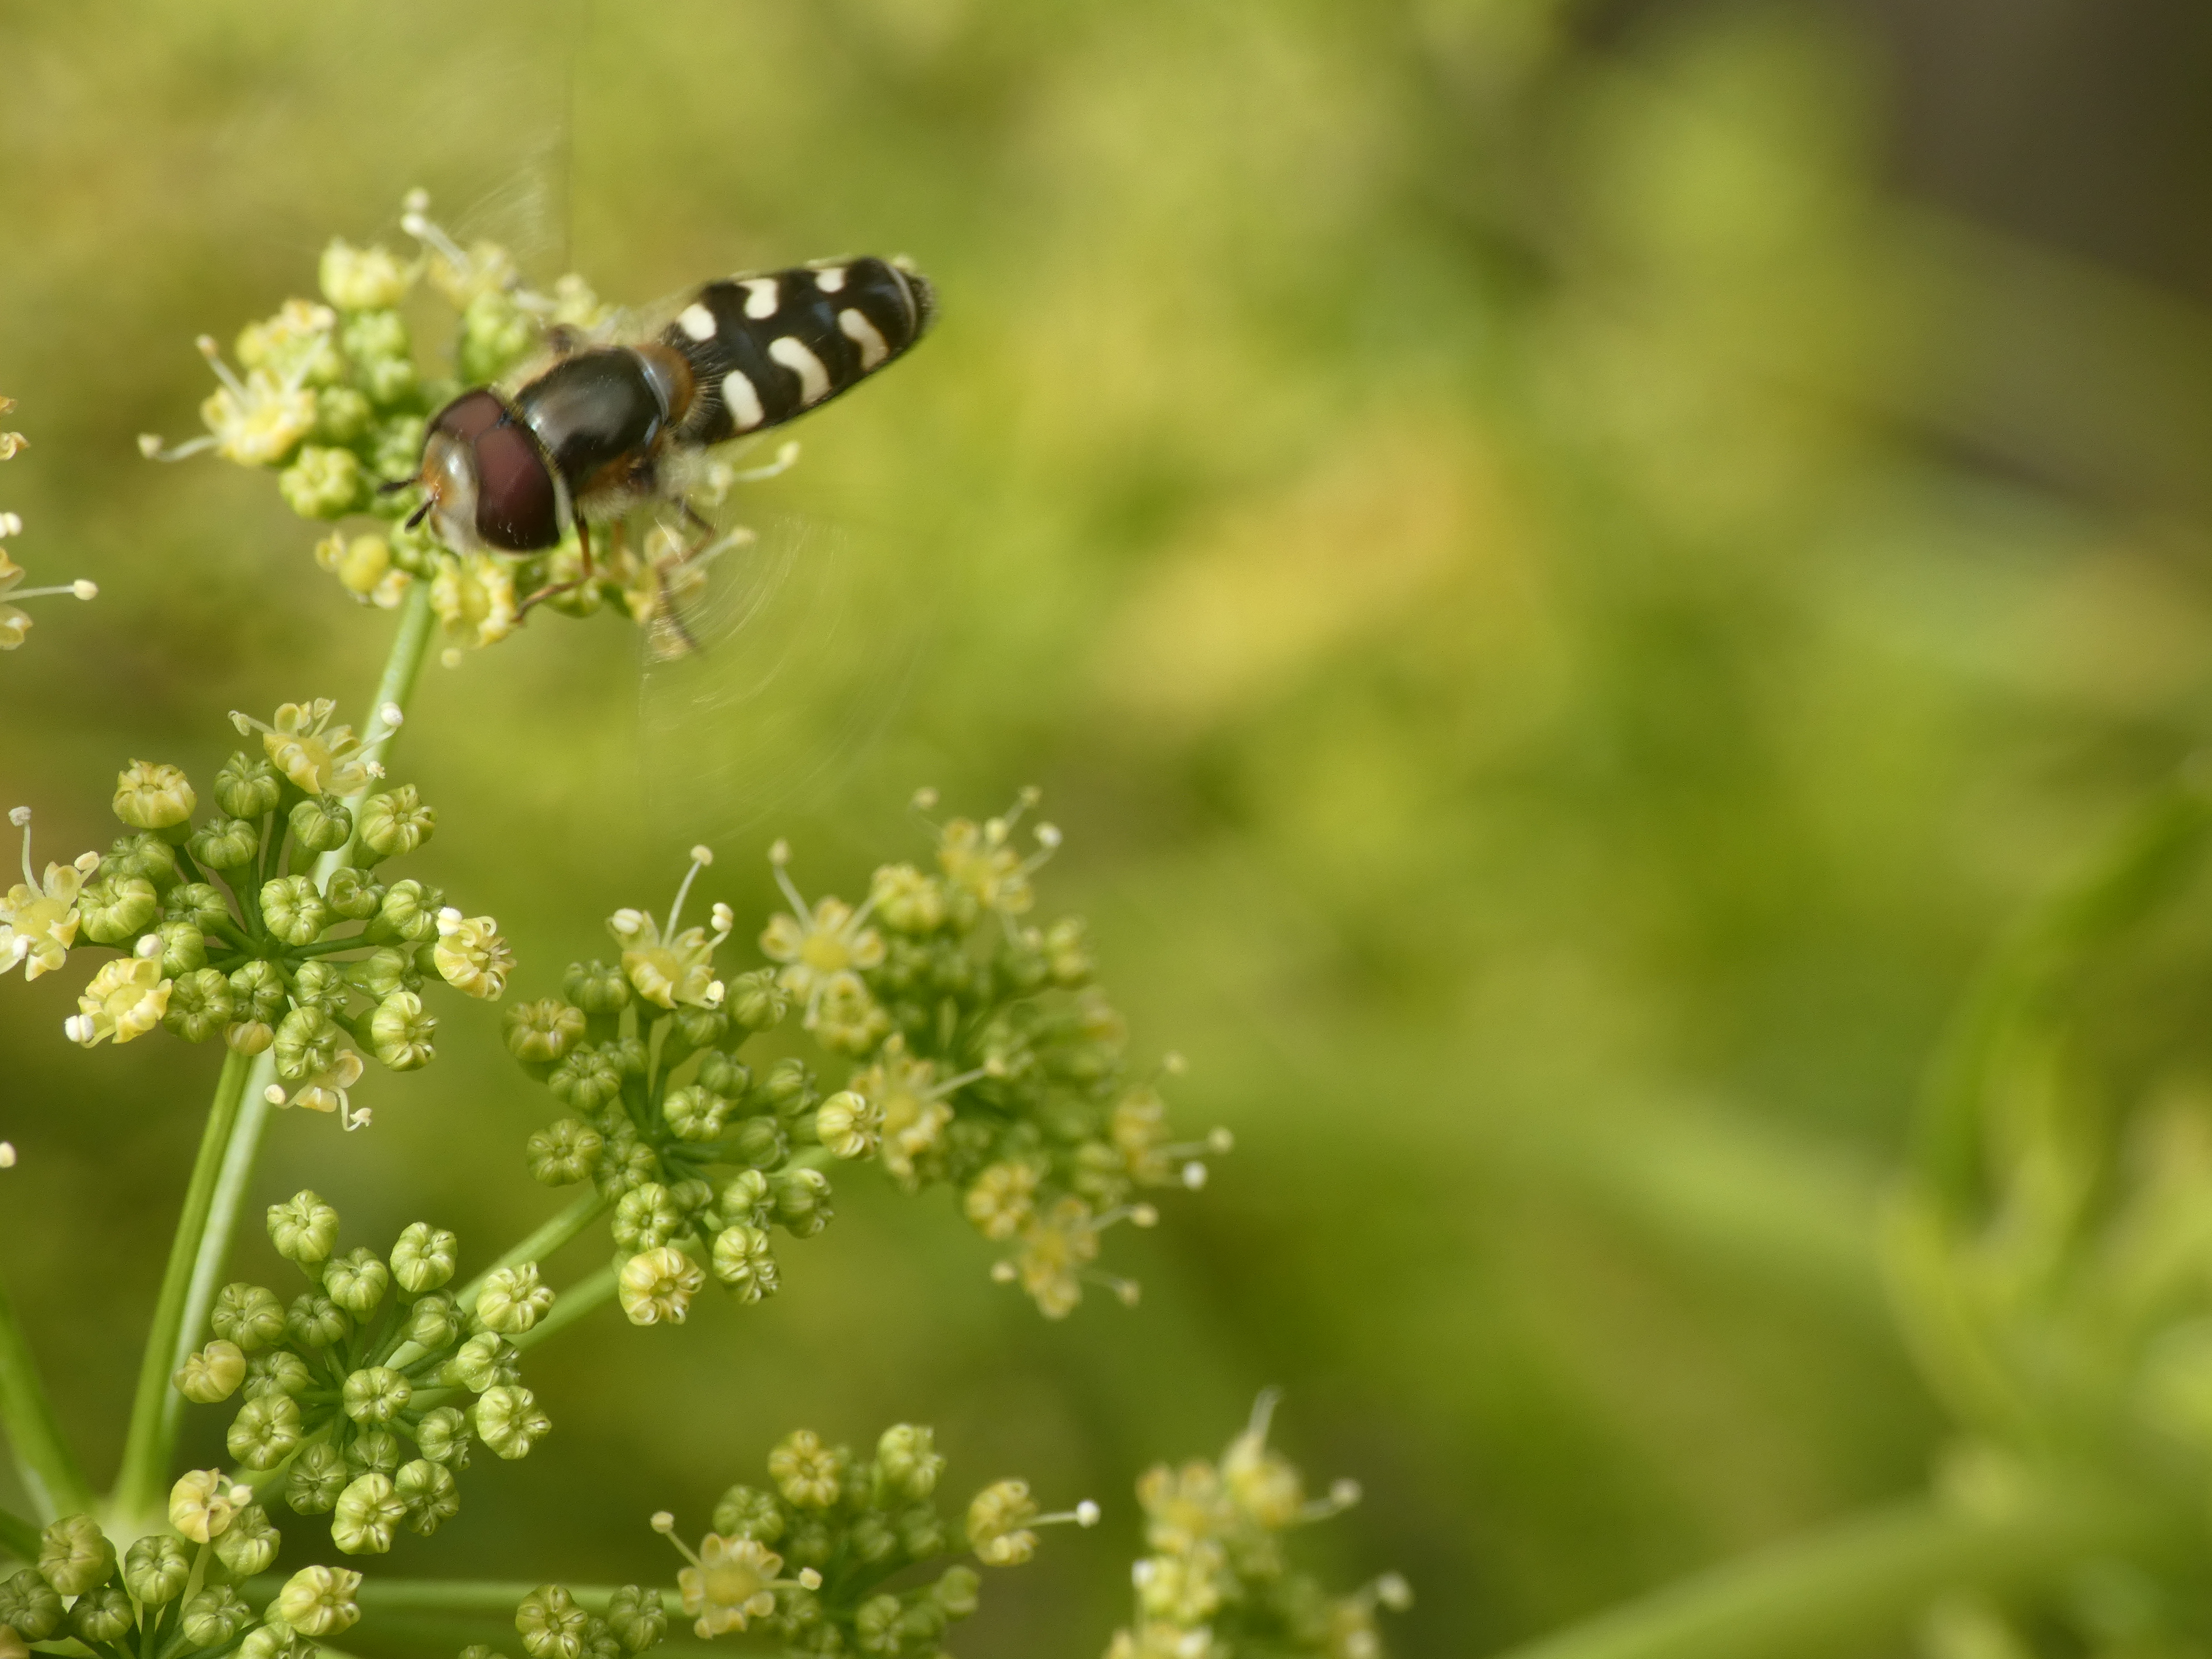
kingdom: Animalia
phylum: Arthropoda
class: Insecta
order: Diptera
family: Syrphidae
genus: Scaeva
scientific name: Scaeva pyrastri
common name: Hvidplettet agersvirreflue
